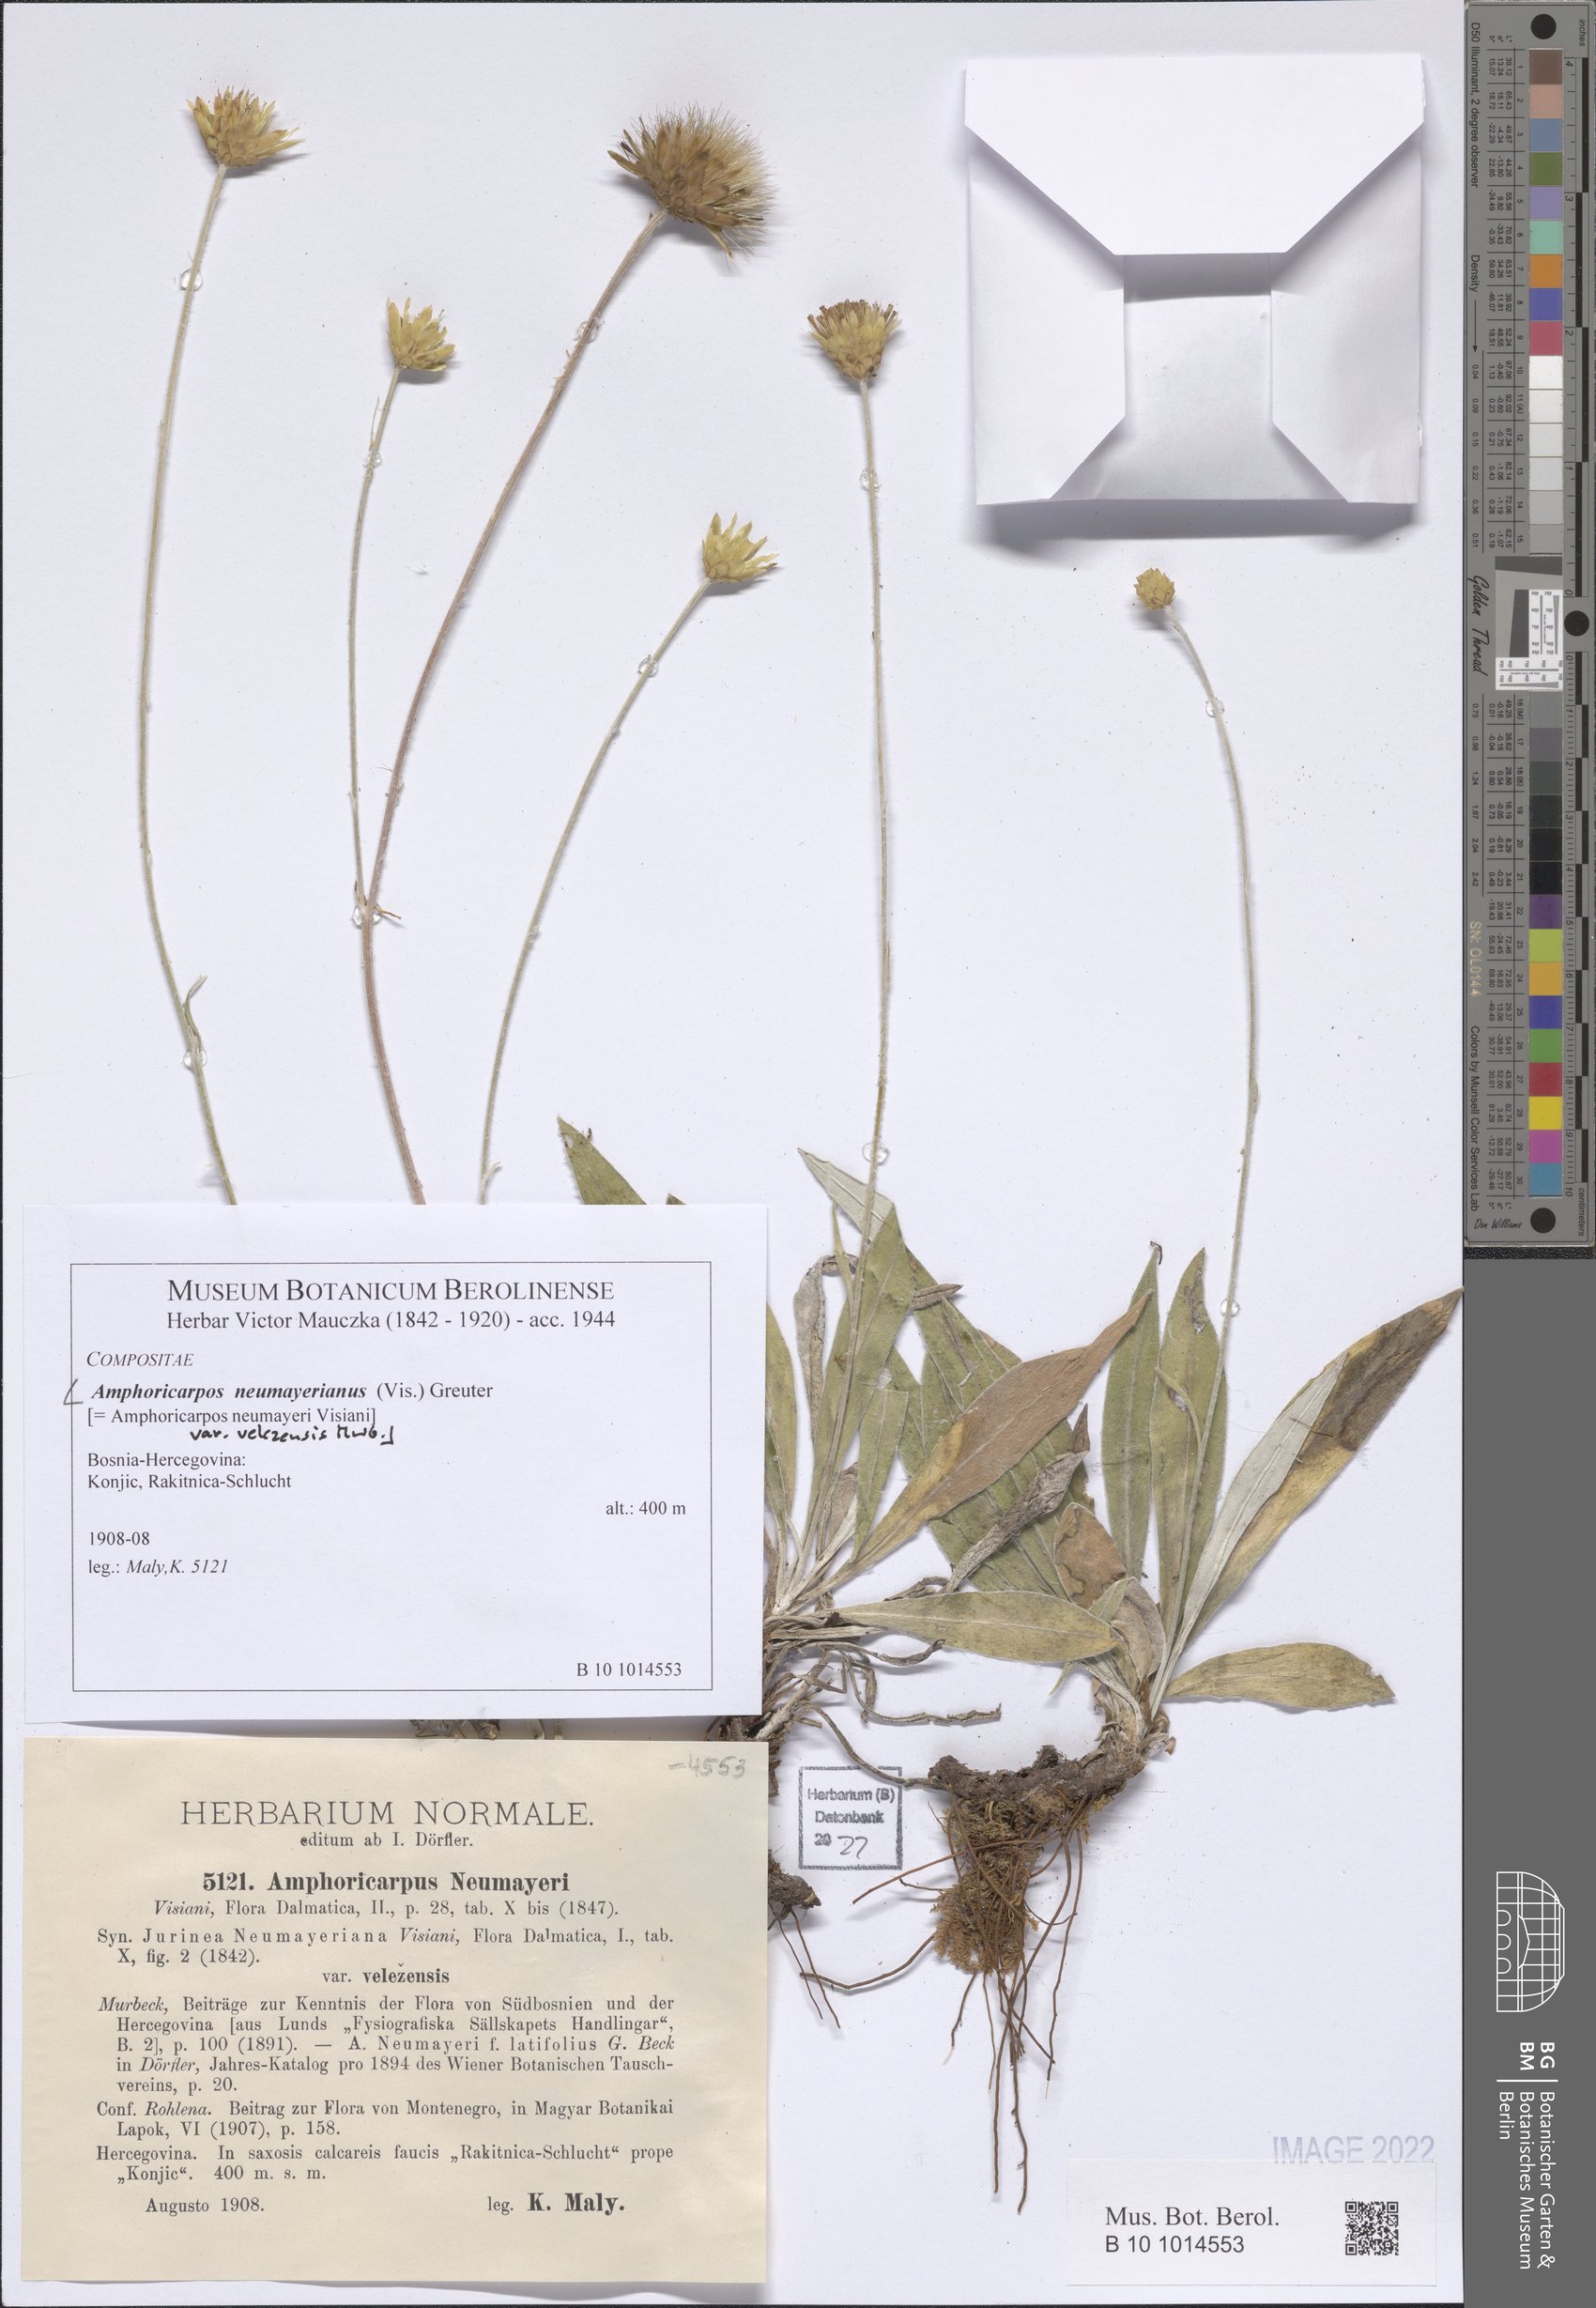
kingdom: Plantae
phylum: Tracheophyta
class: Magnoliopsida
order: Asterales
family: Asteraceae
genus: Amphoricarpos
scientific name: Amphoricarpos neumayerianus
